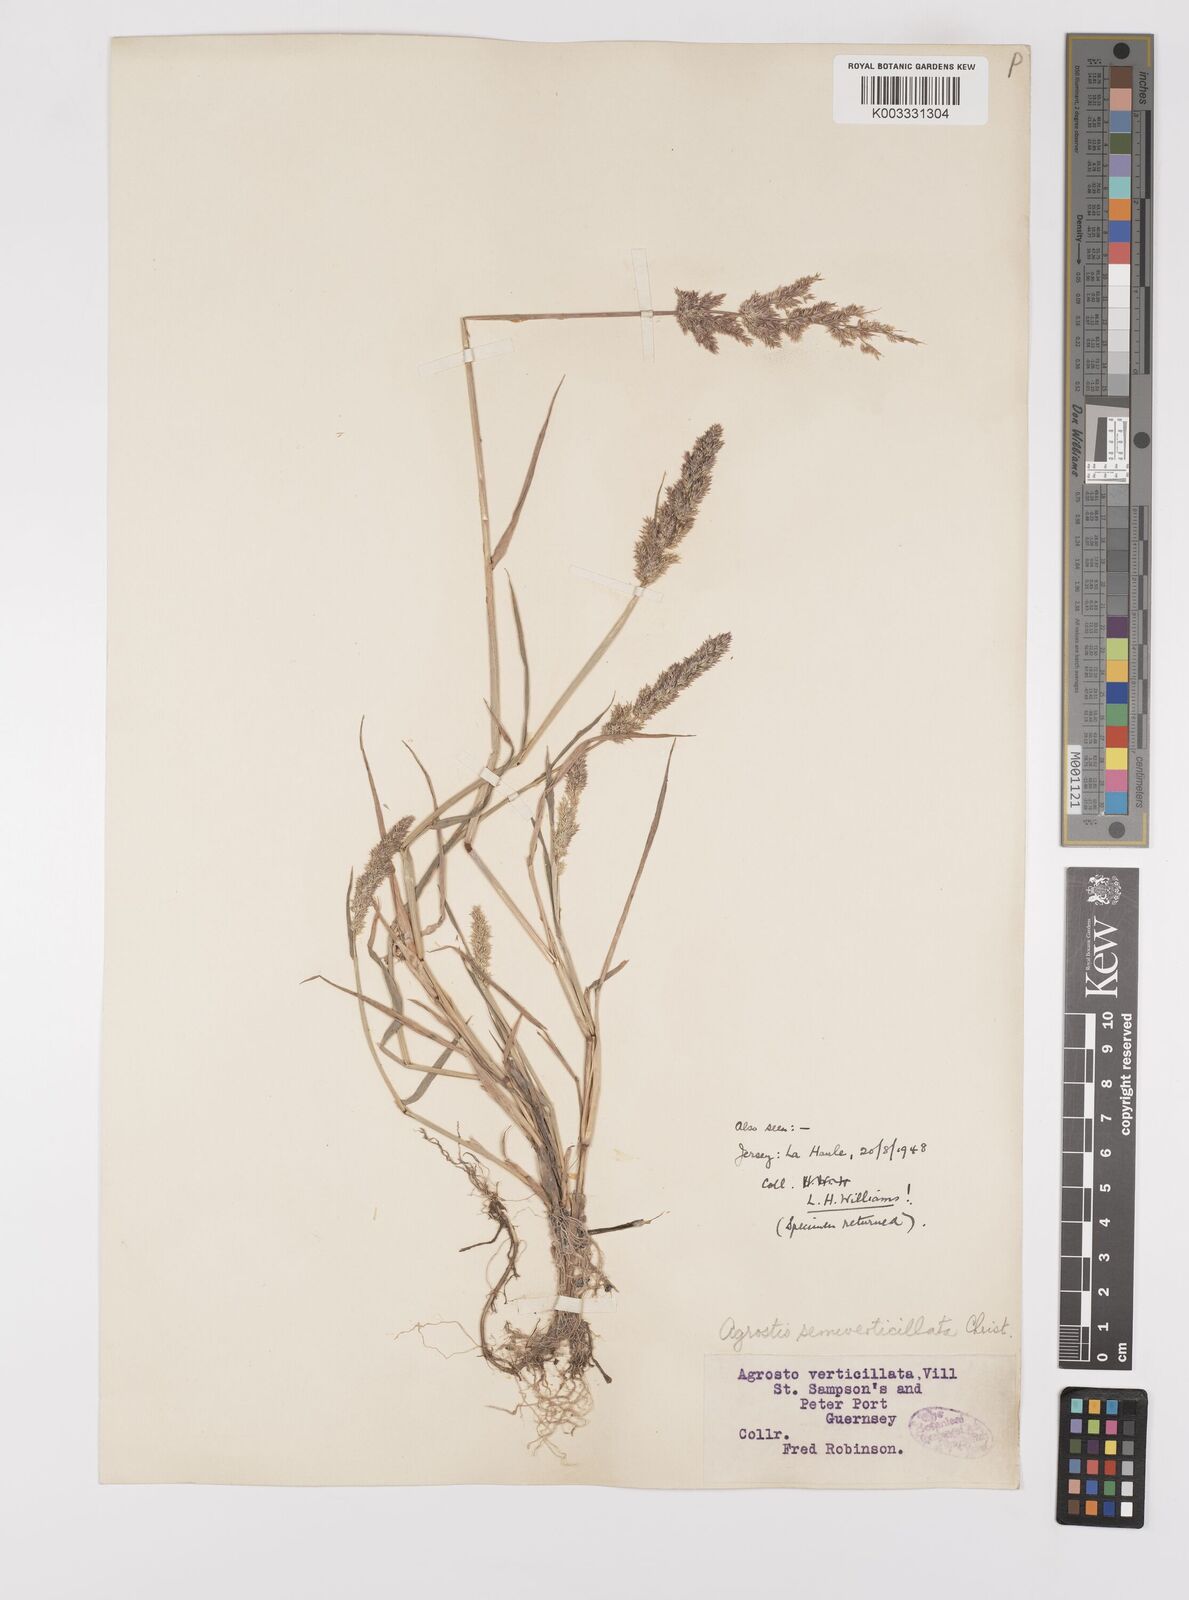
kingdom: Plantae
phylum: Tracheophyta
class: Liliopsida
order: Poales
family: Poaceae
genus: Polypogon
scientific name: Polypogon viridis
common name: Water bent
